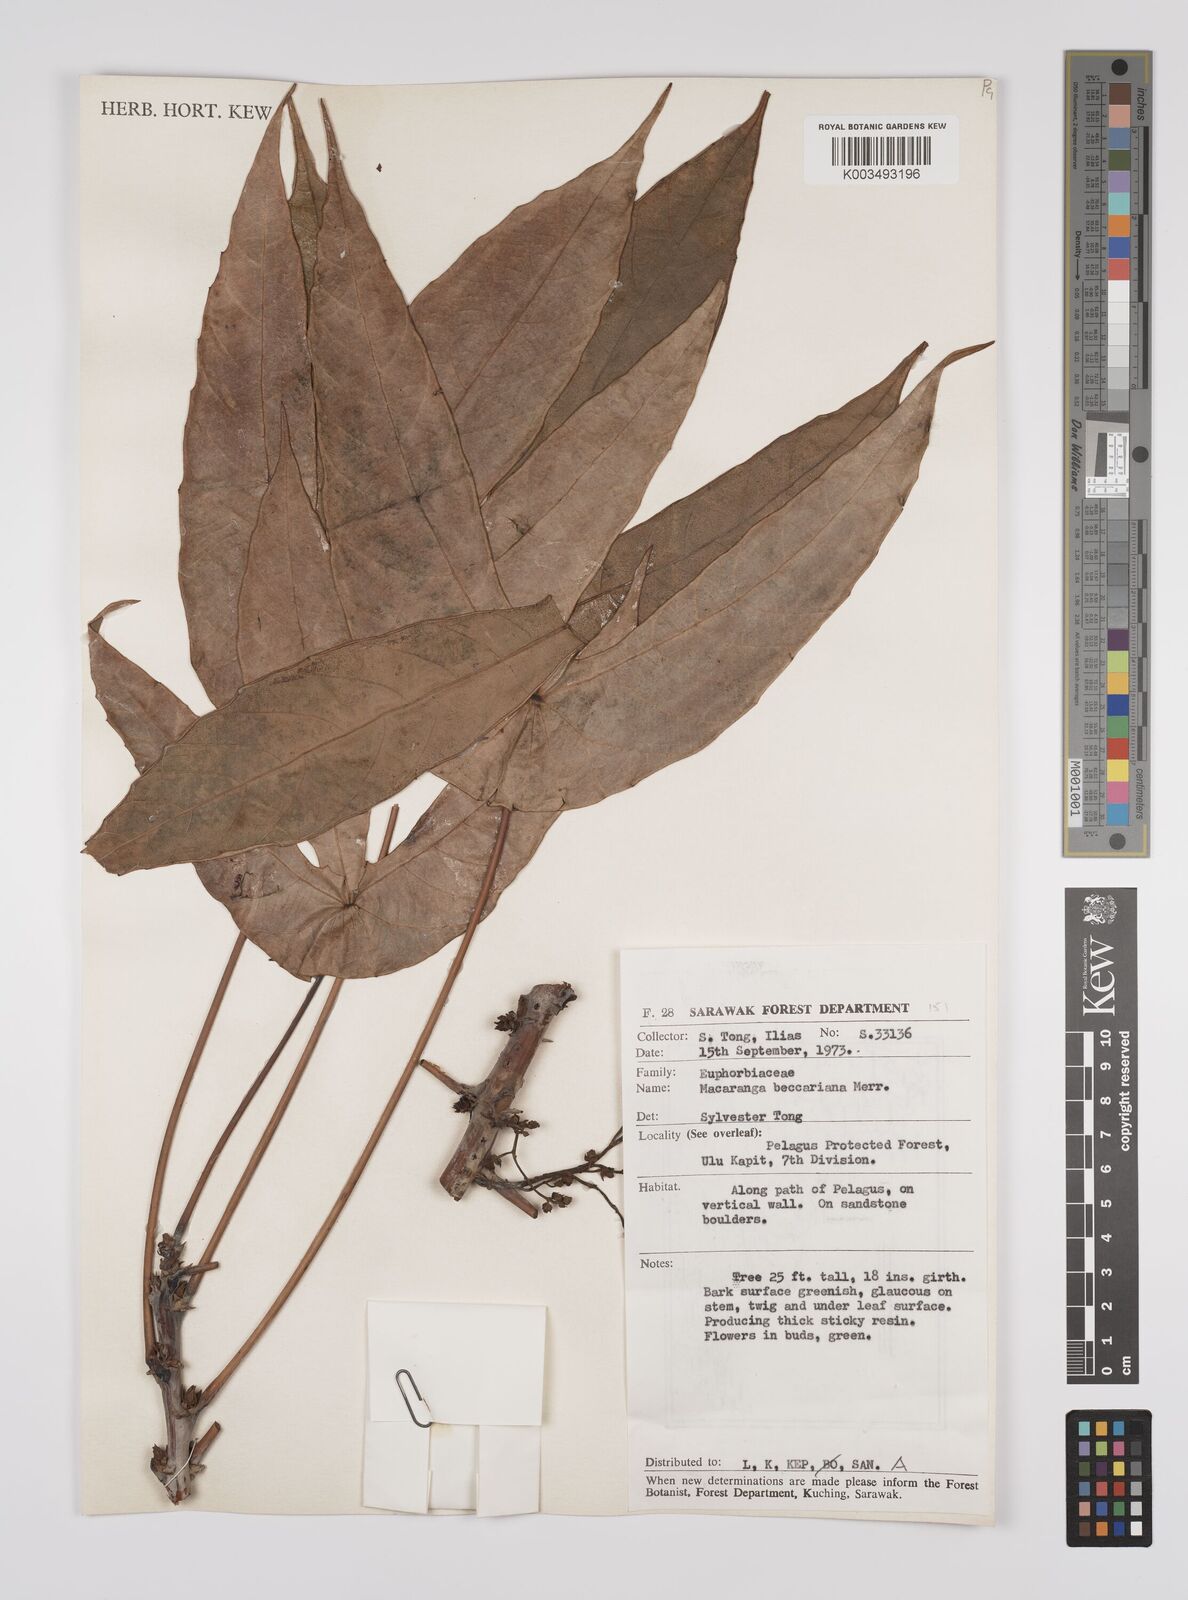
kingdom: Plantae
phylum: Tracheophyta
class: Magnoliopsida
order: Malpighiales
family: Euphorbiaceae
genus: Macaranga
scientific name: Macaranga beccariana
